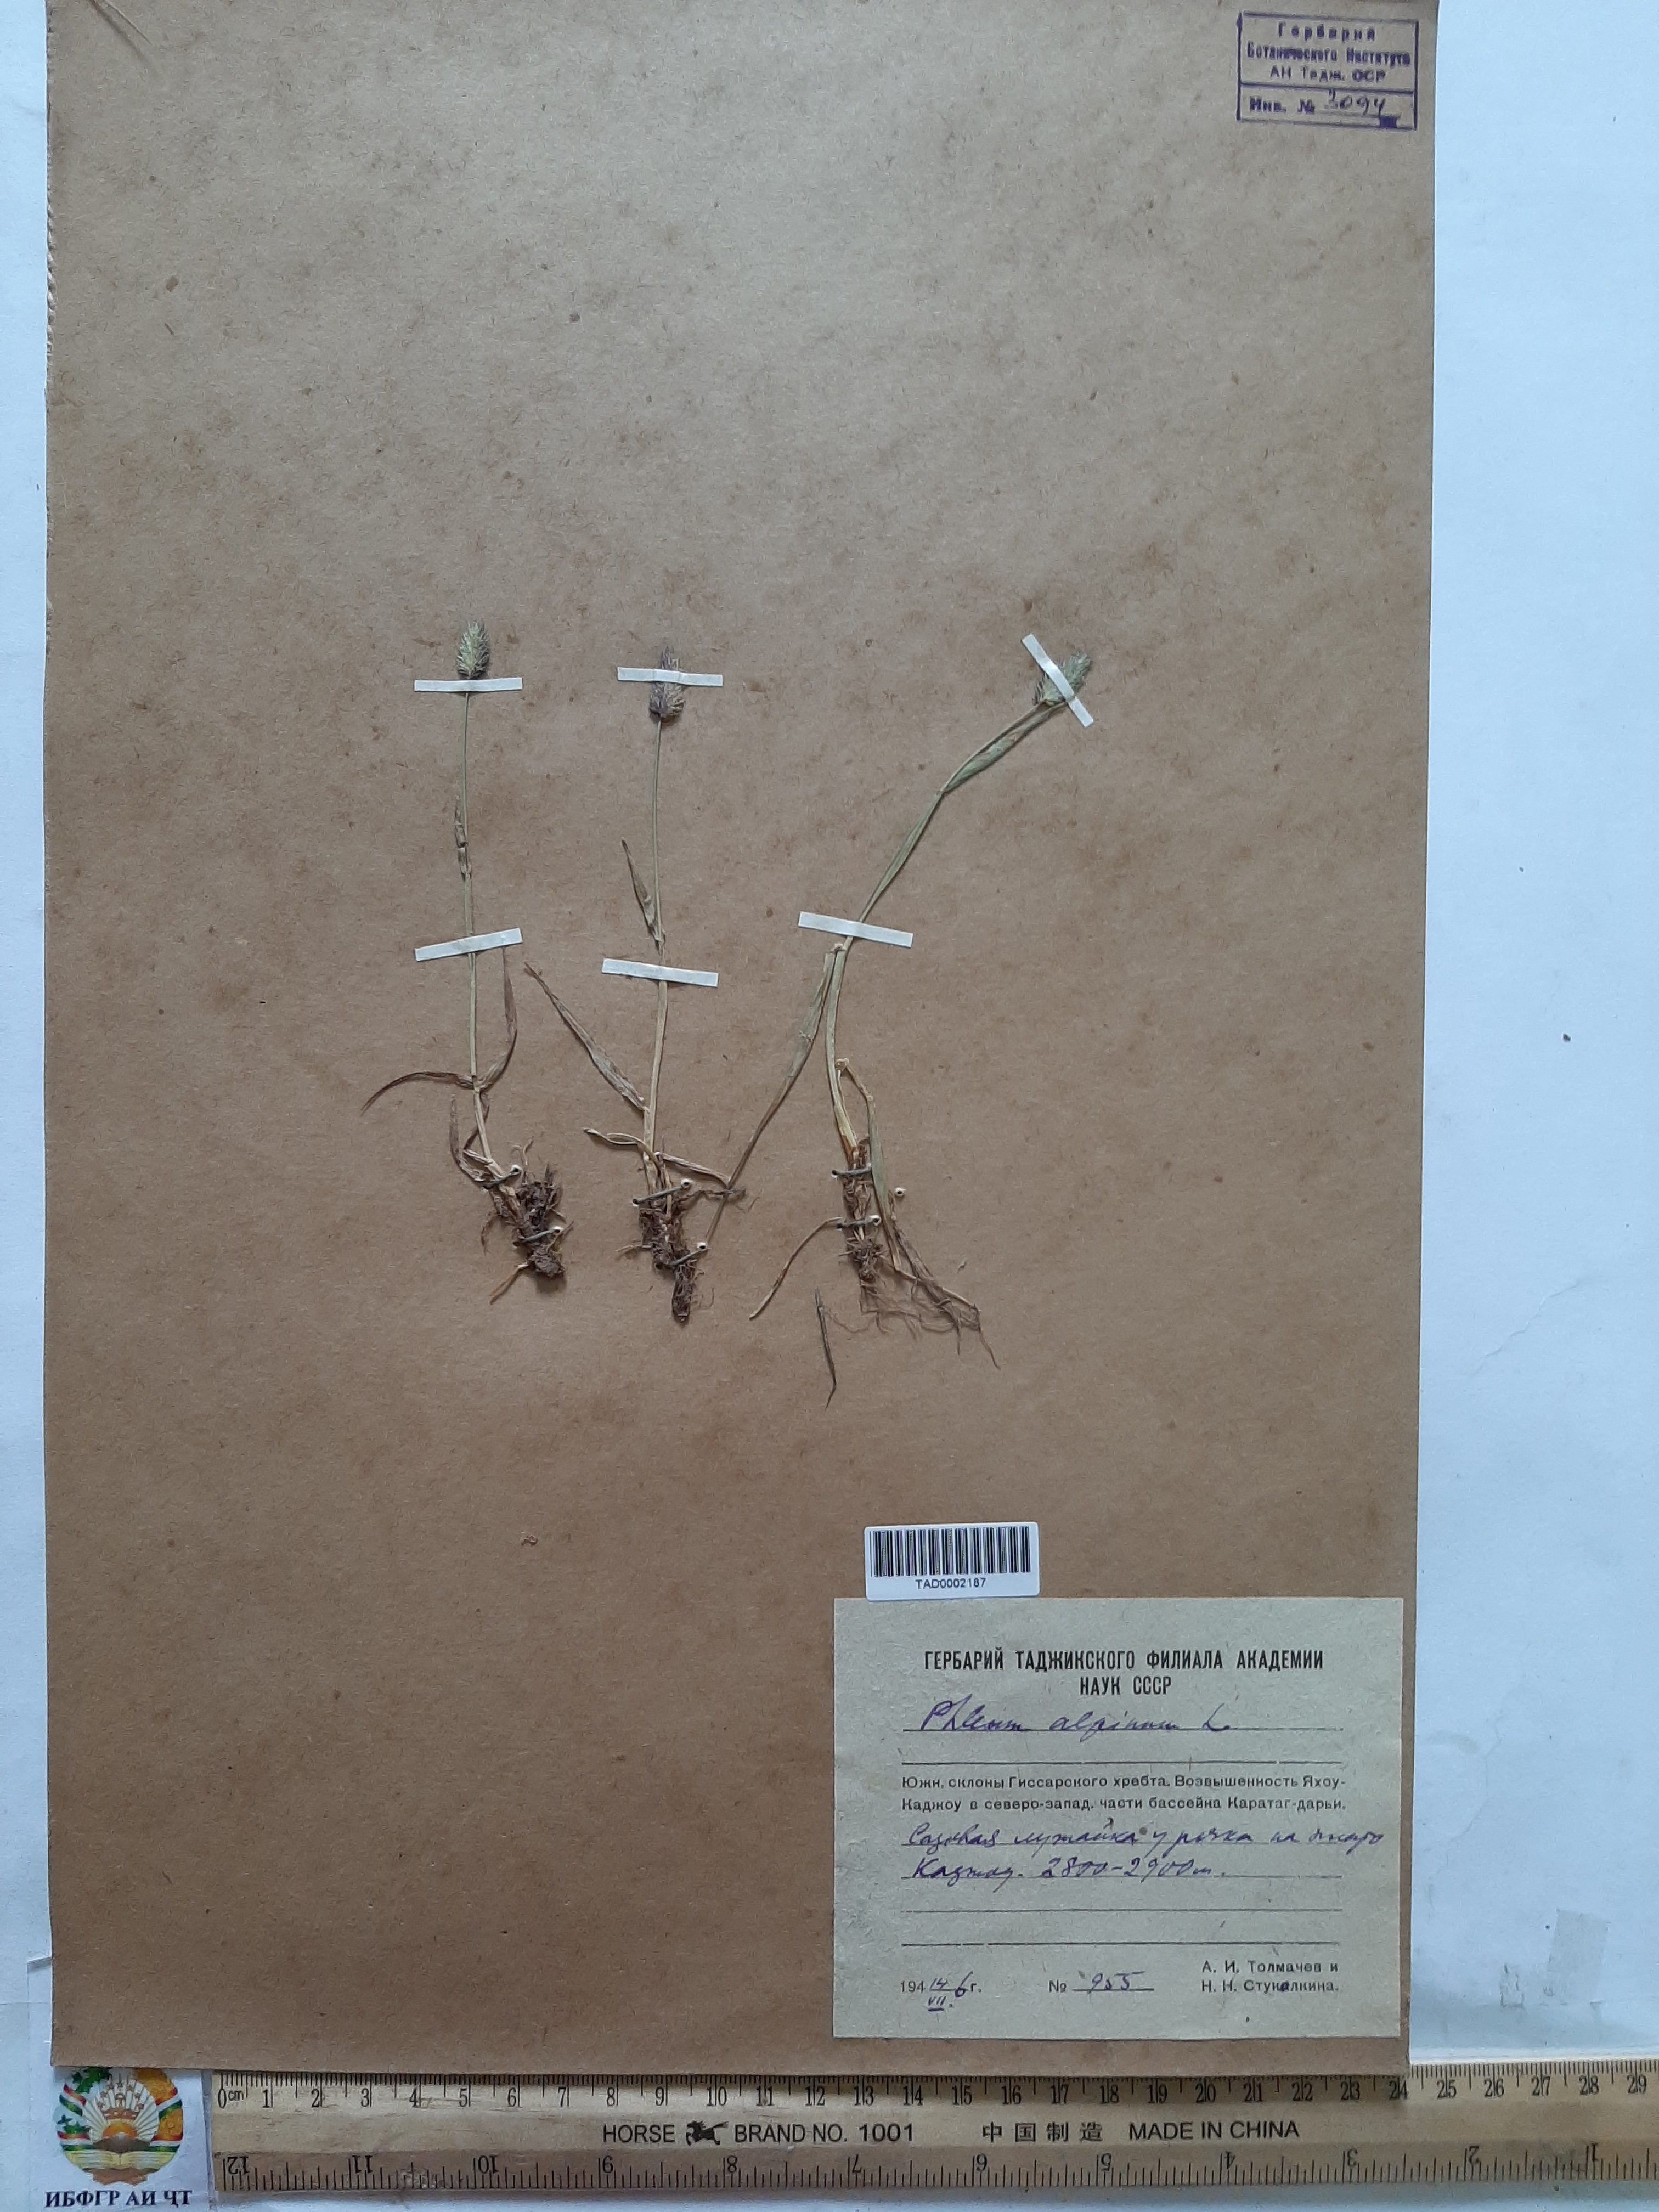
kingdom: Plantae
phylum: Tracheophyta
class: Liliopsida
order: Poales
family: Poaceae
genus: Phleum
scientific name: Phleum alpinum
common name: Alpine cat's-tail
